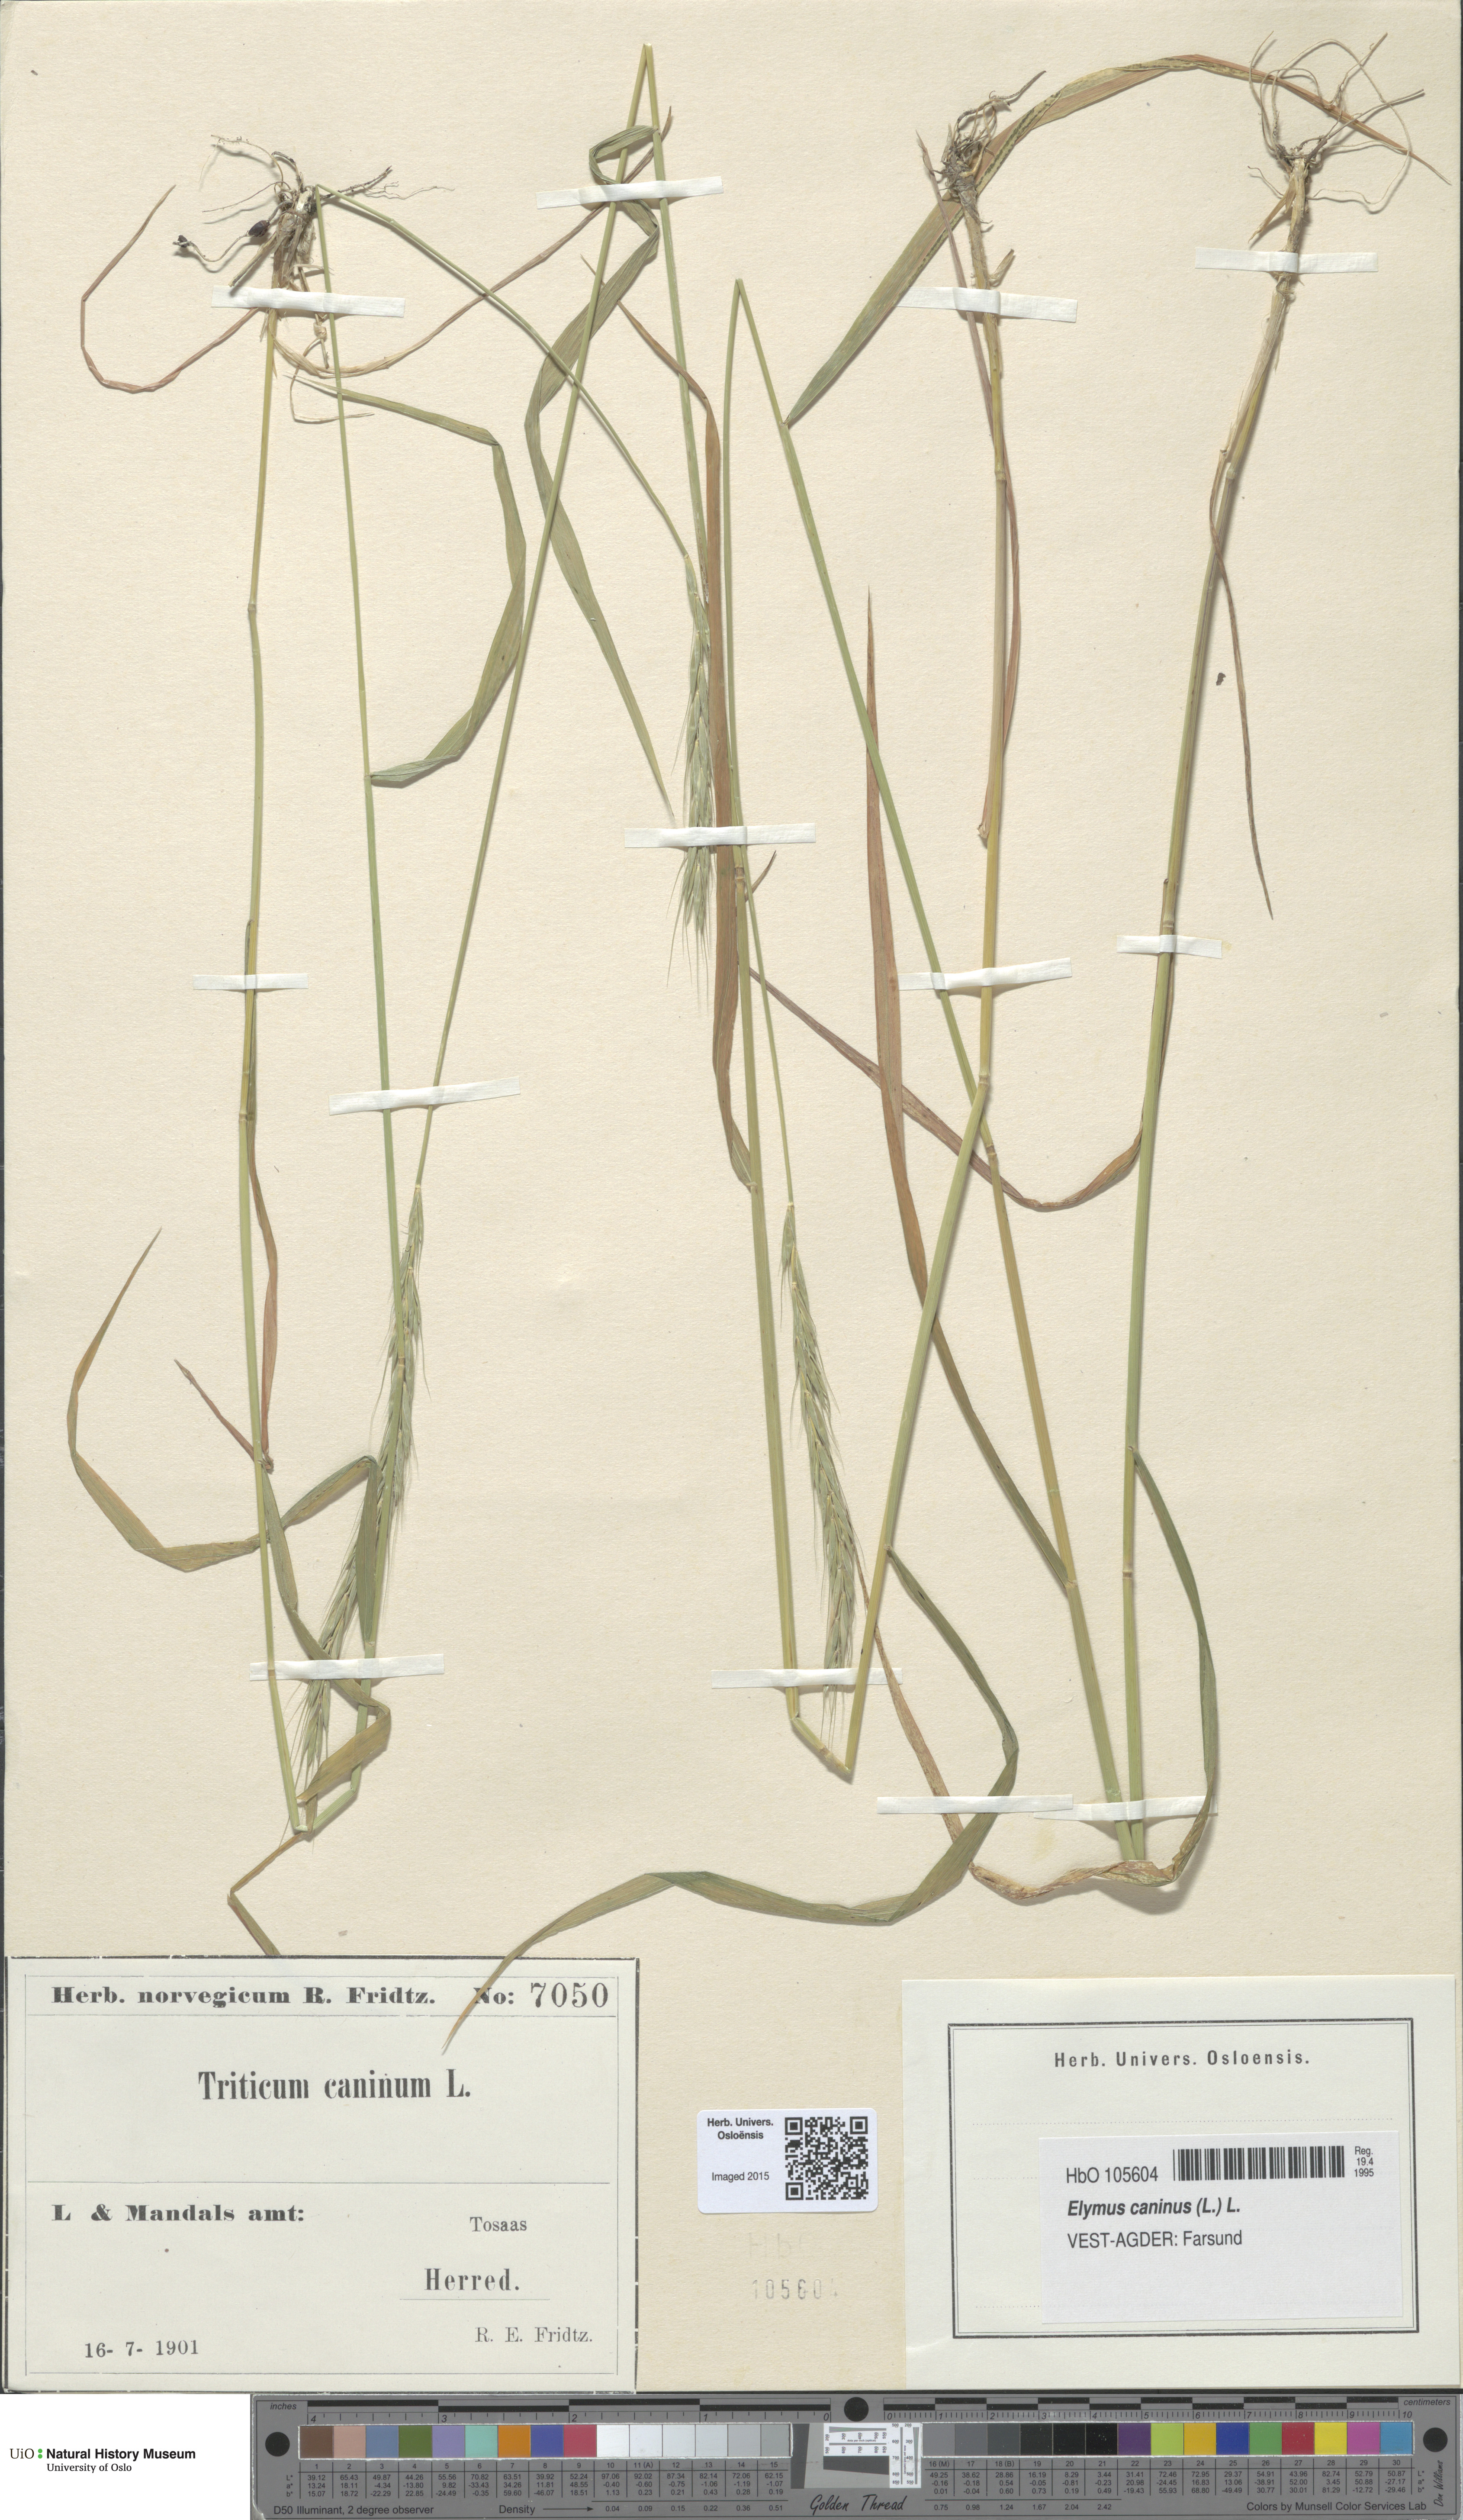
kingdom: Plantae
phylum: Tracheophyta
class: Liliopsida
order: Poales
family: Poaceae
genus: Elymus
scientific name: Elymus caninus
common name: Bearded couch
